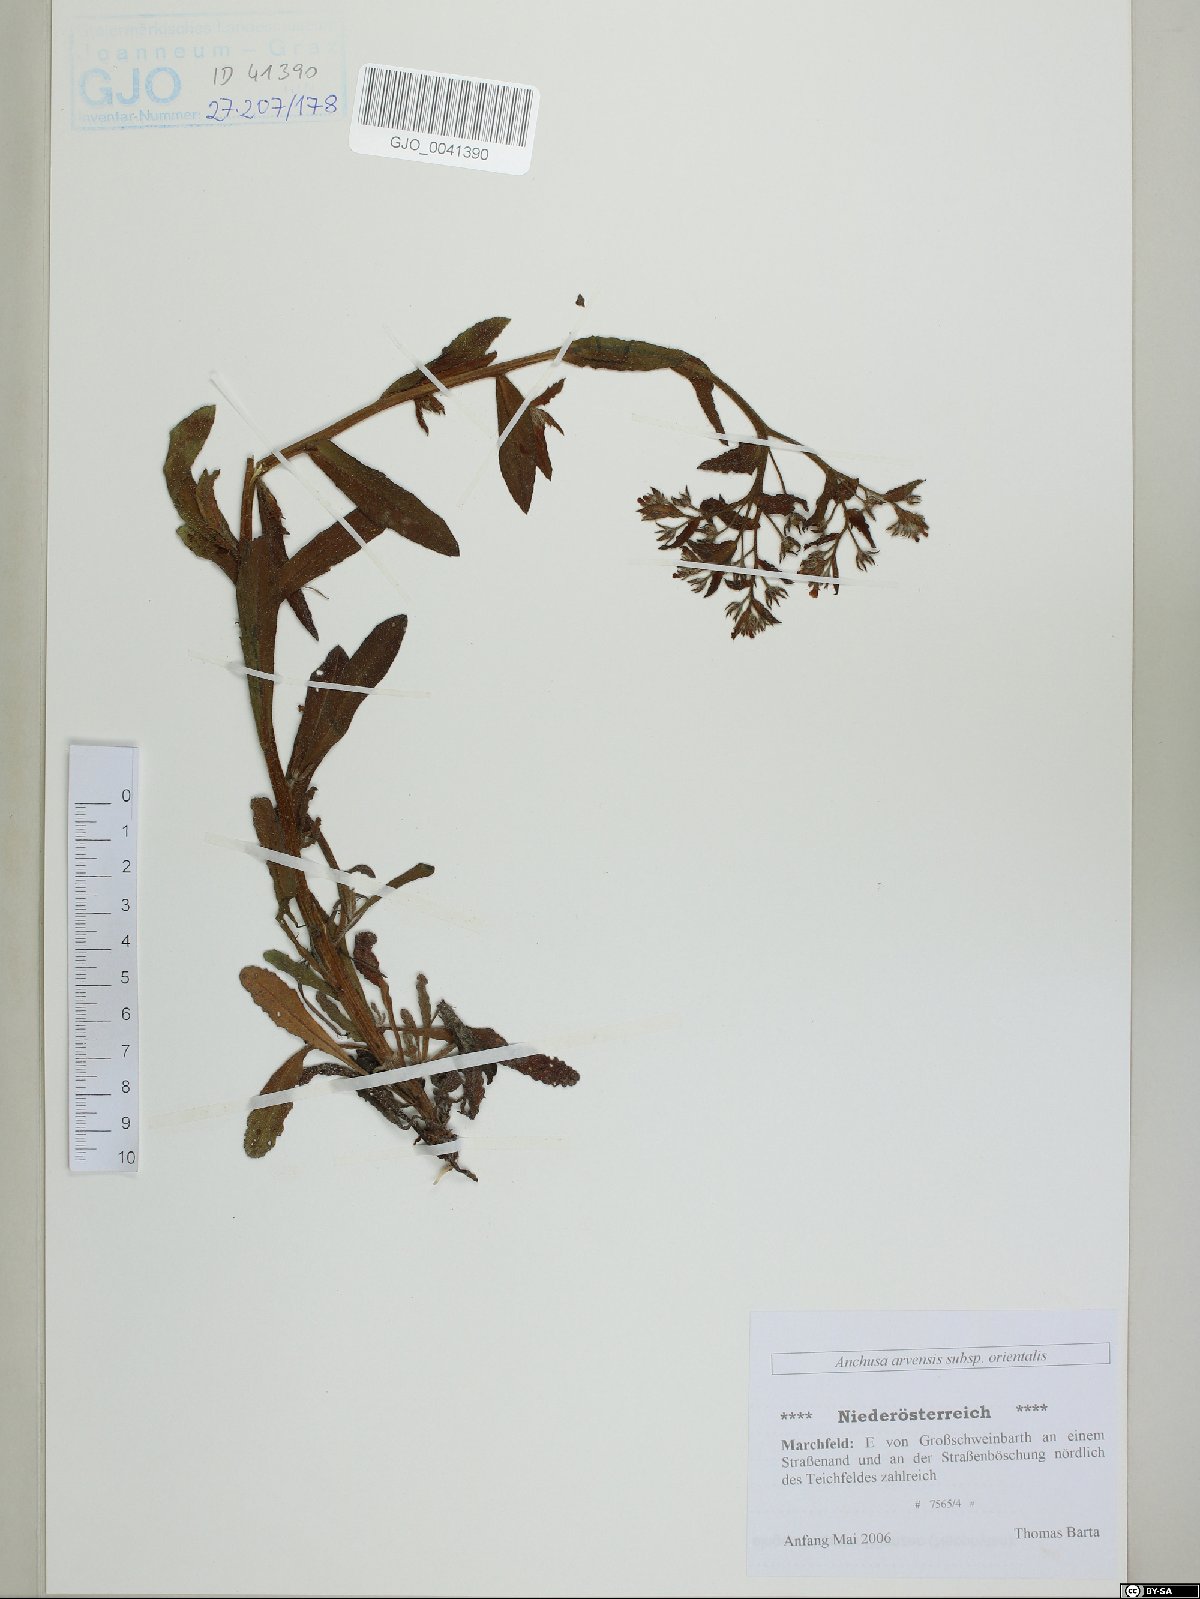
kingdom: Plantae
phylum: Tracheophyta
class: Magnoliopsida
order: Boraginales
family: Boraginaceae
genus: Lycopsis
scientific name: Lycopsis arvensis
